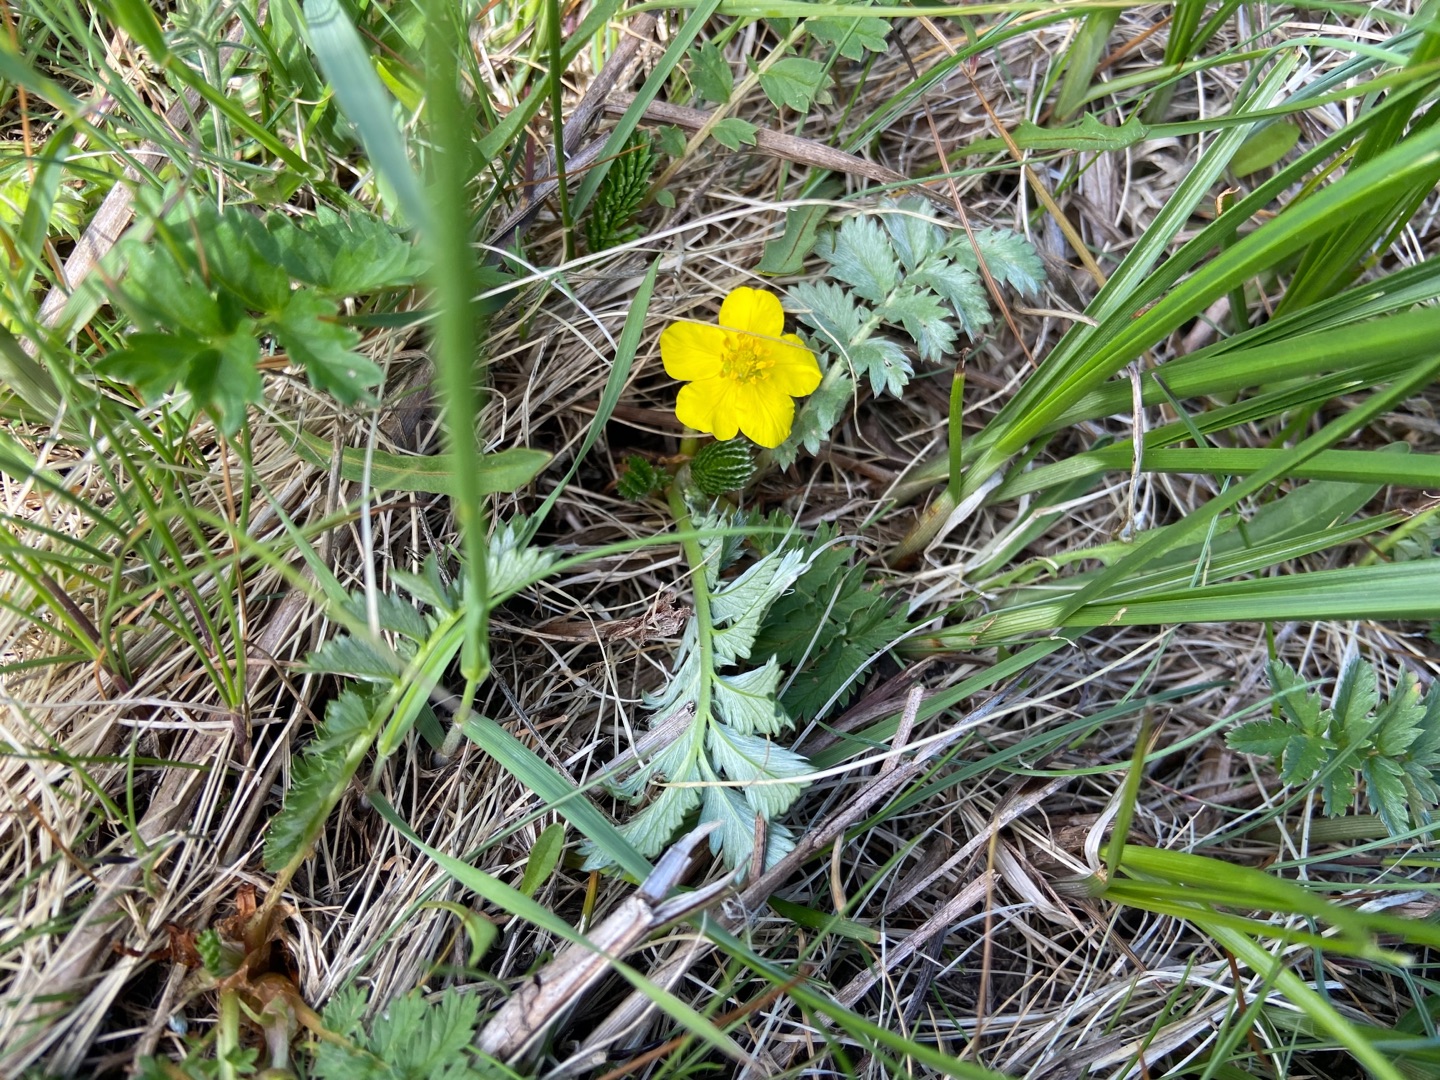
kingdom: Plantae
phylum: Tracheophyta
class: Magnoliopsida
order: Rosales
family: Rosaceae
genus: Argentina
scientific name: Argentina anserina
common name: Gåsepotentil
